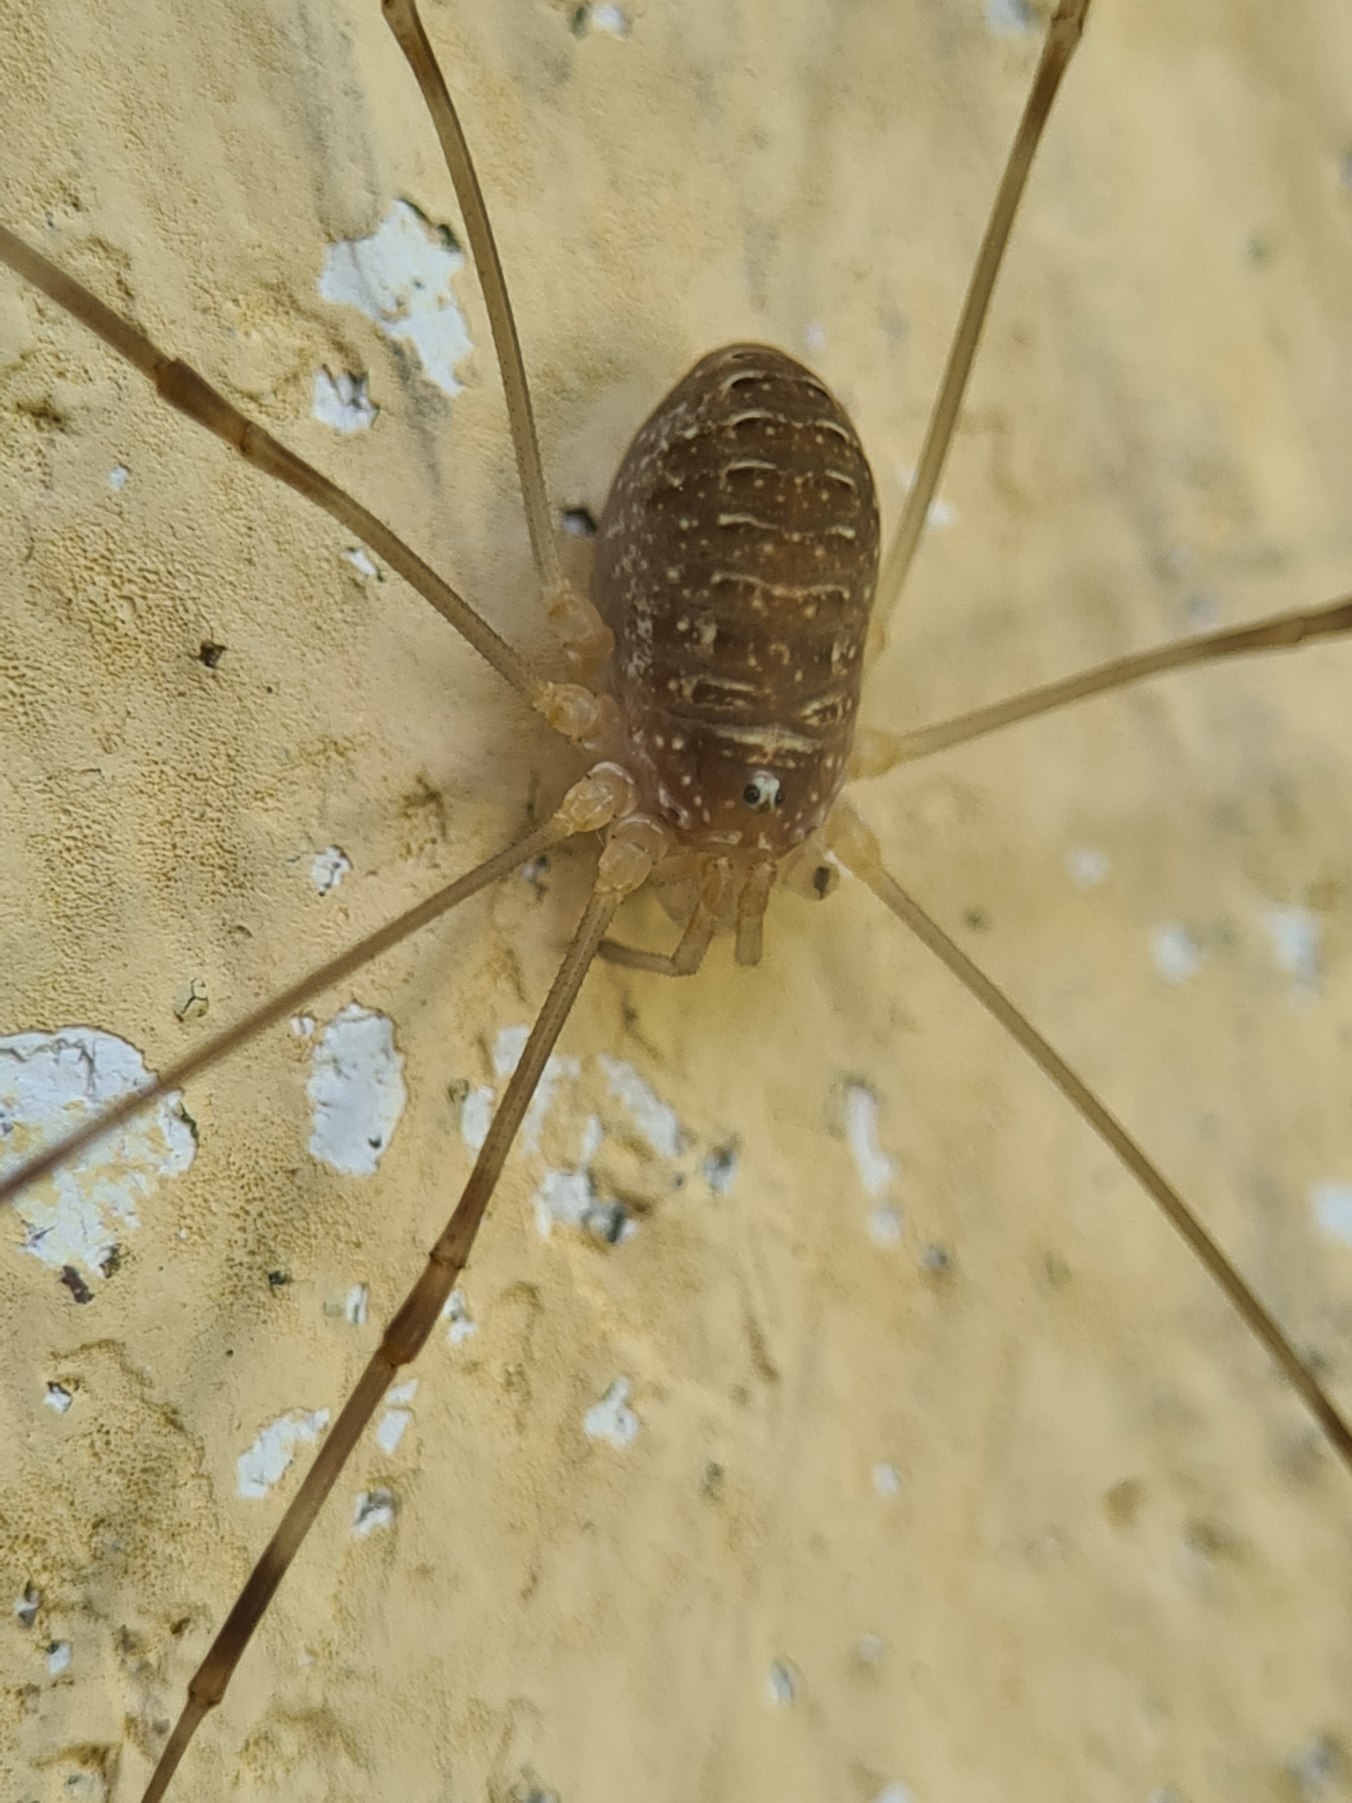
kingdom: Animalia
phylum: Arthropoda
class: Arachnida
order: Opiliones
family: Phalangiidae
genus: Opilio
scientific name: Opilio canestrinii
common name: Orange vægmejer
